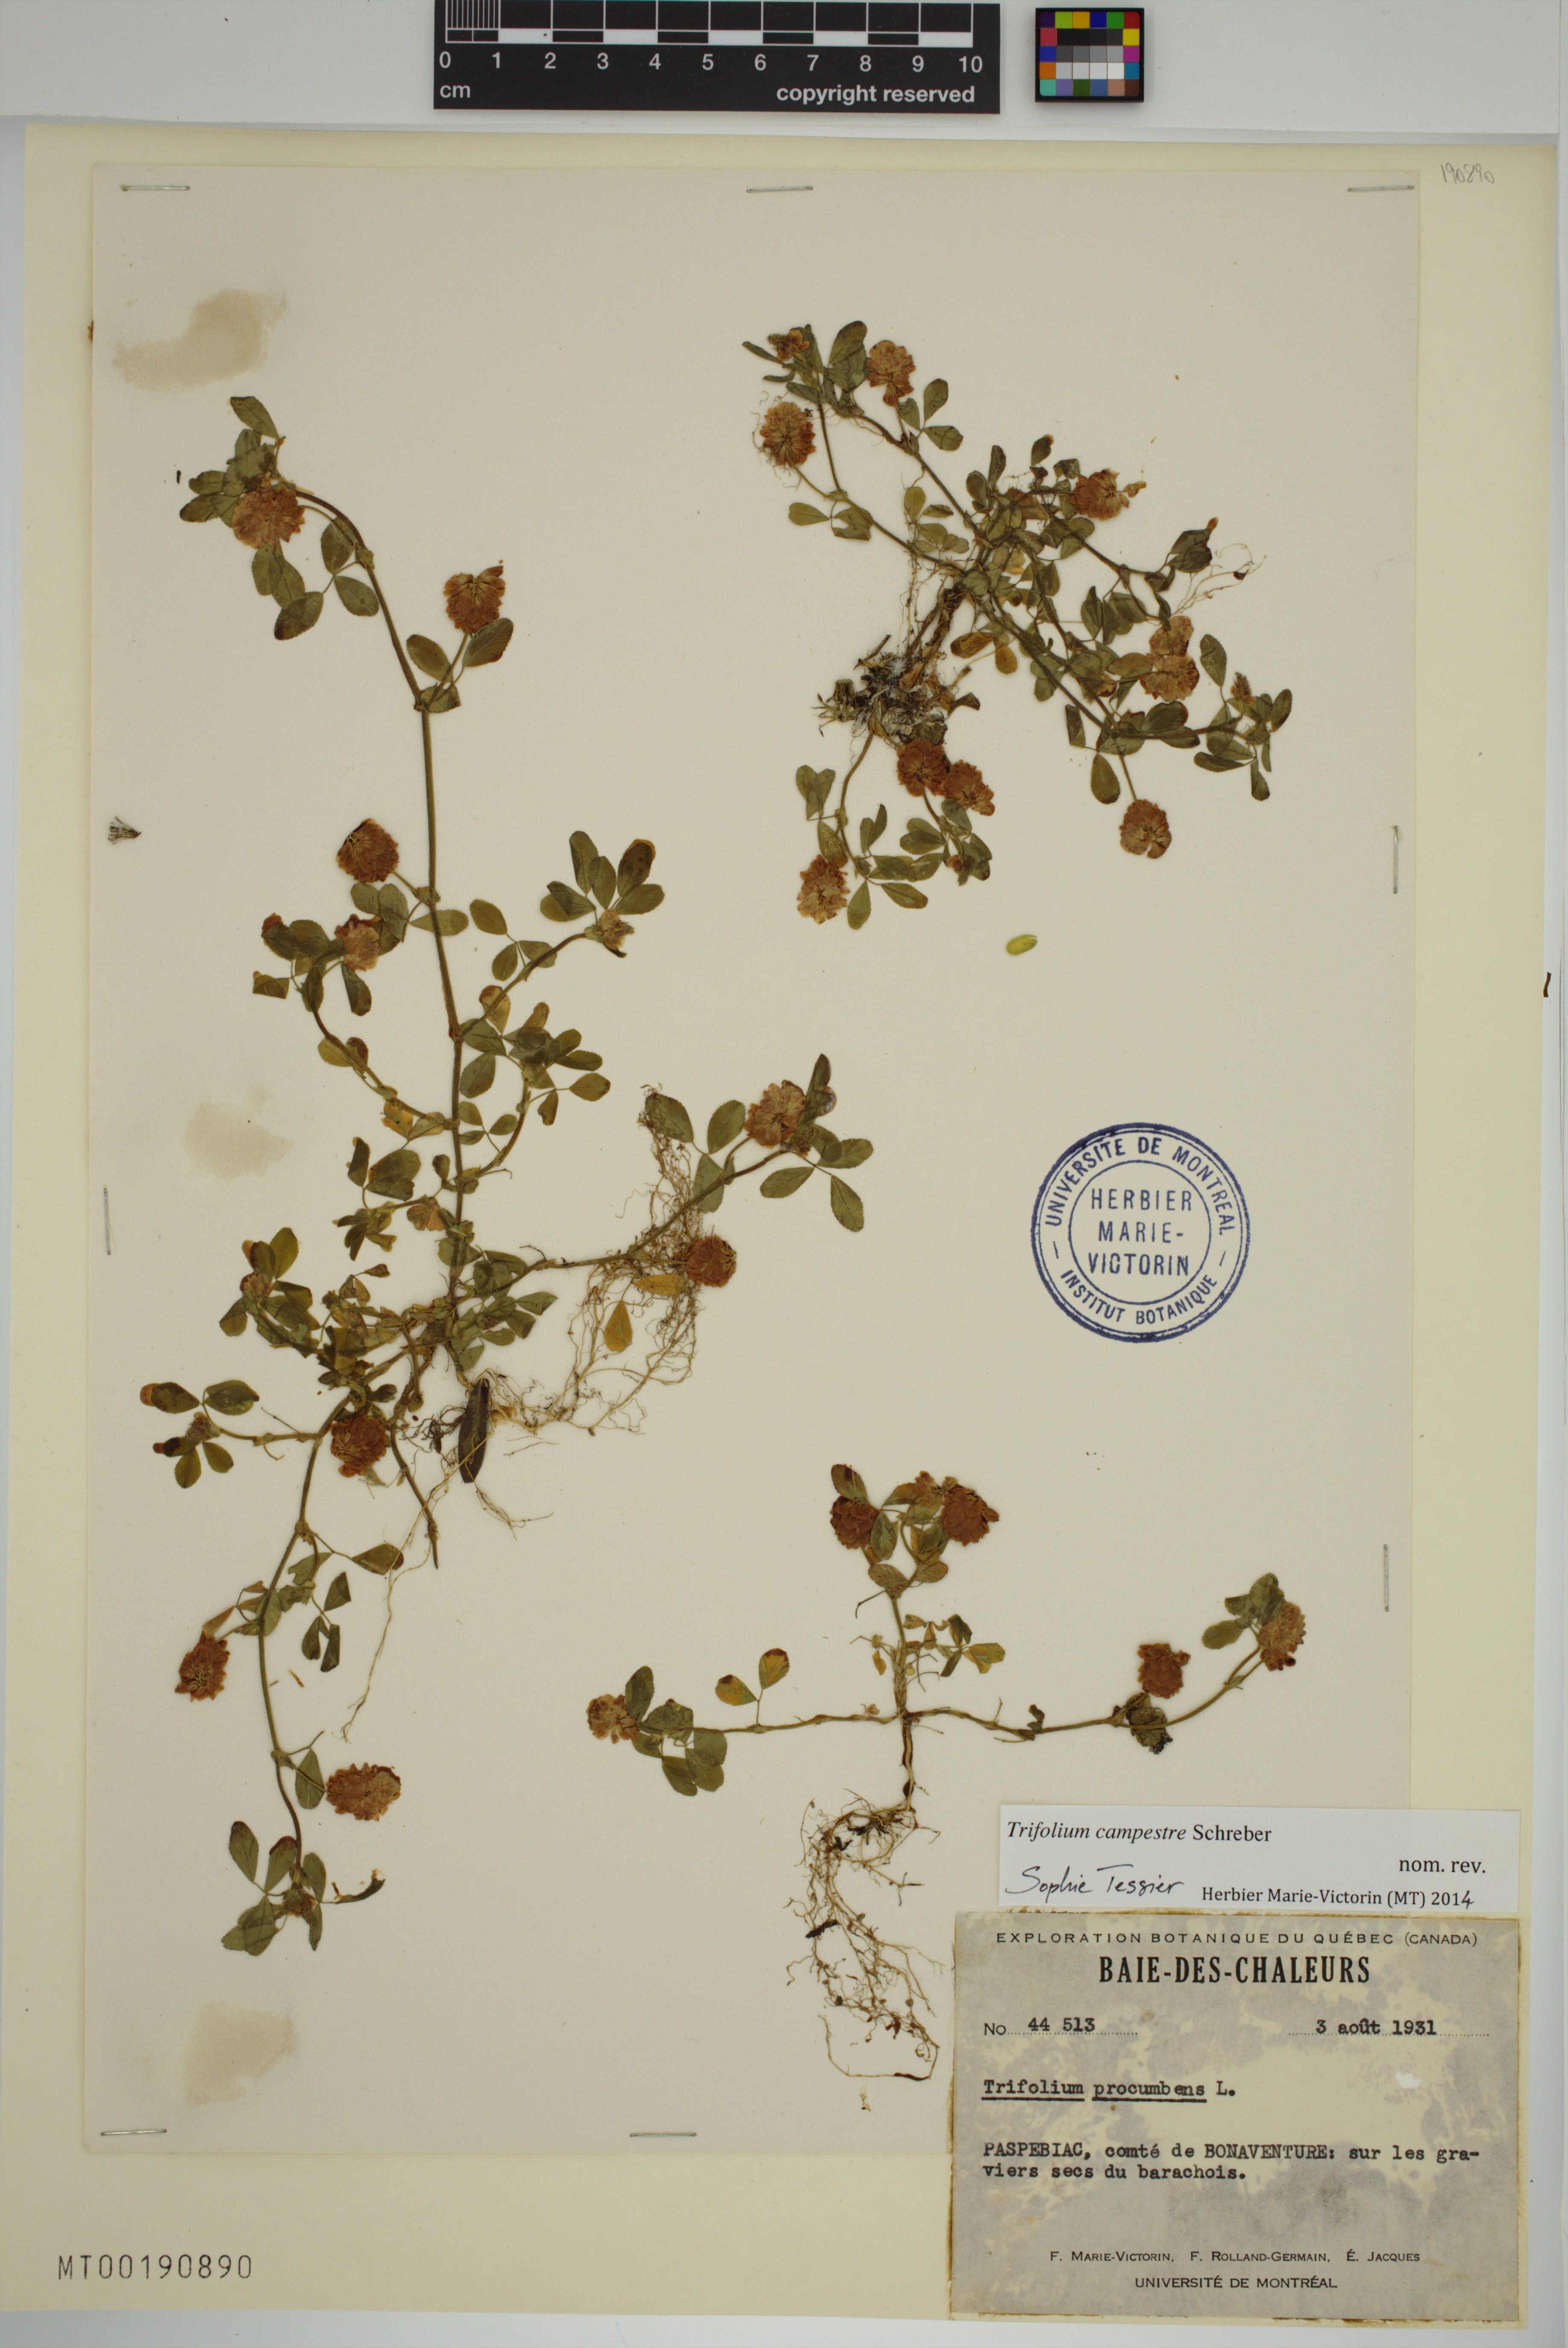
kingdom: Plantae
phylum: Tracheophyta
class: Magnoliopsida
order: Fabales
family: Fabaceae
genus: Trifolium
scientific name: Trifolium campestre
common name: Field clover
